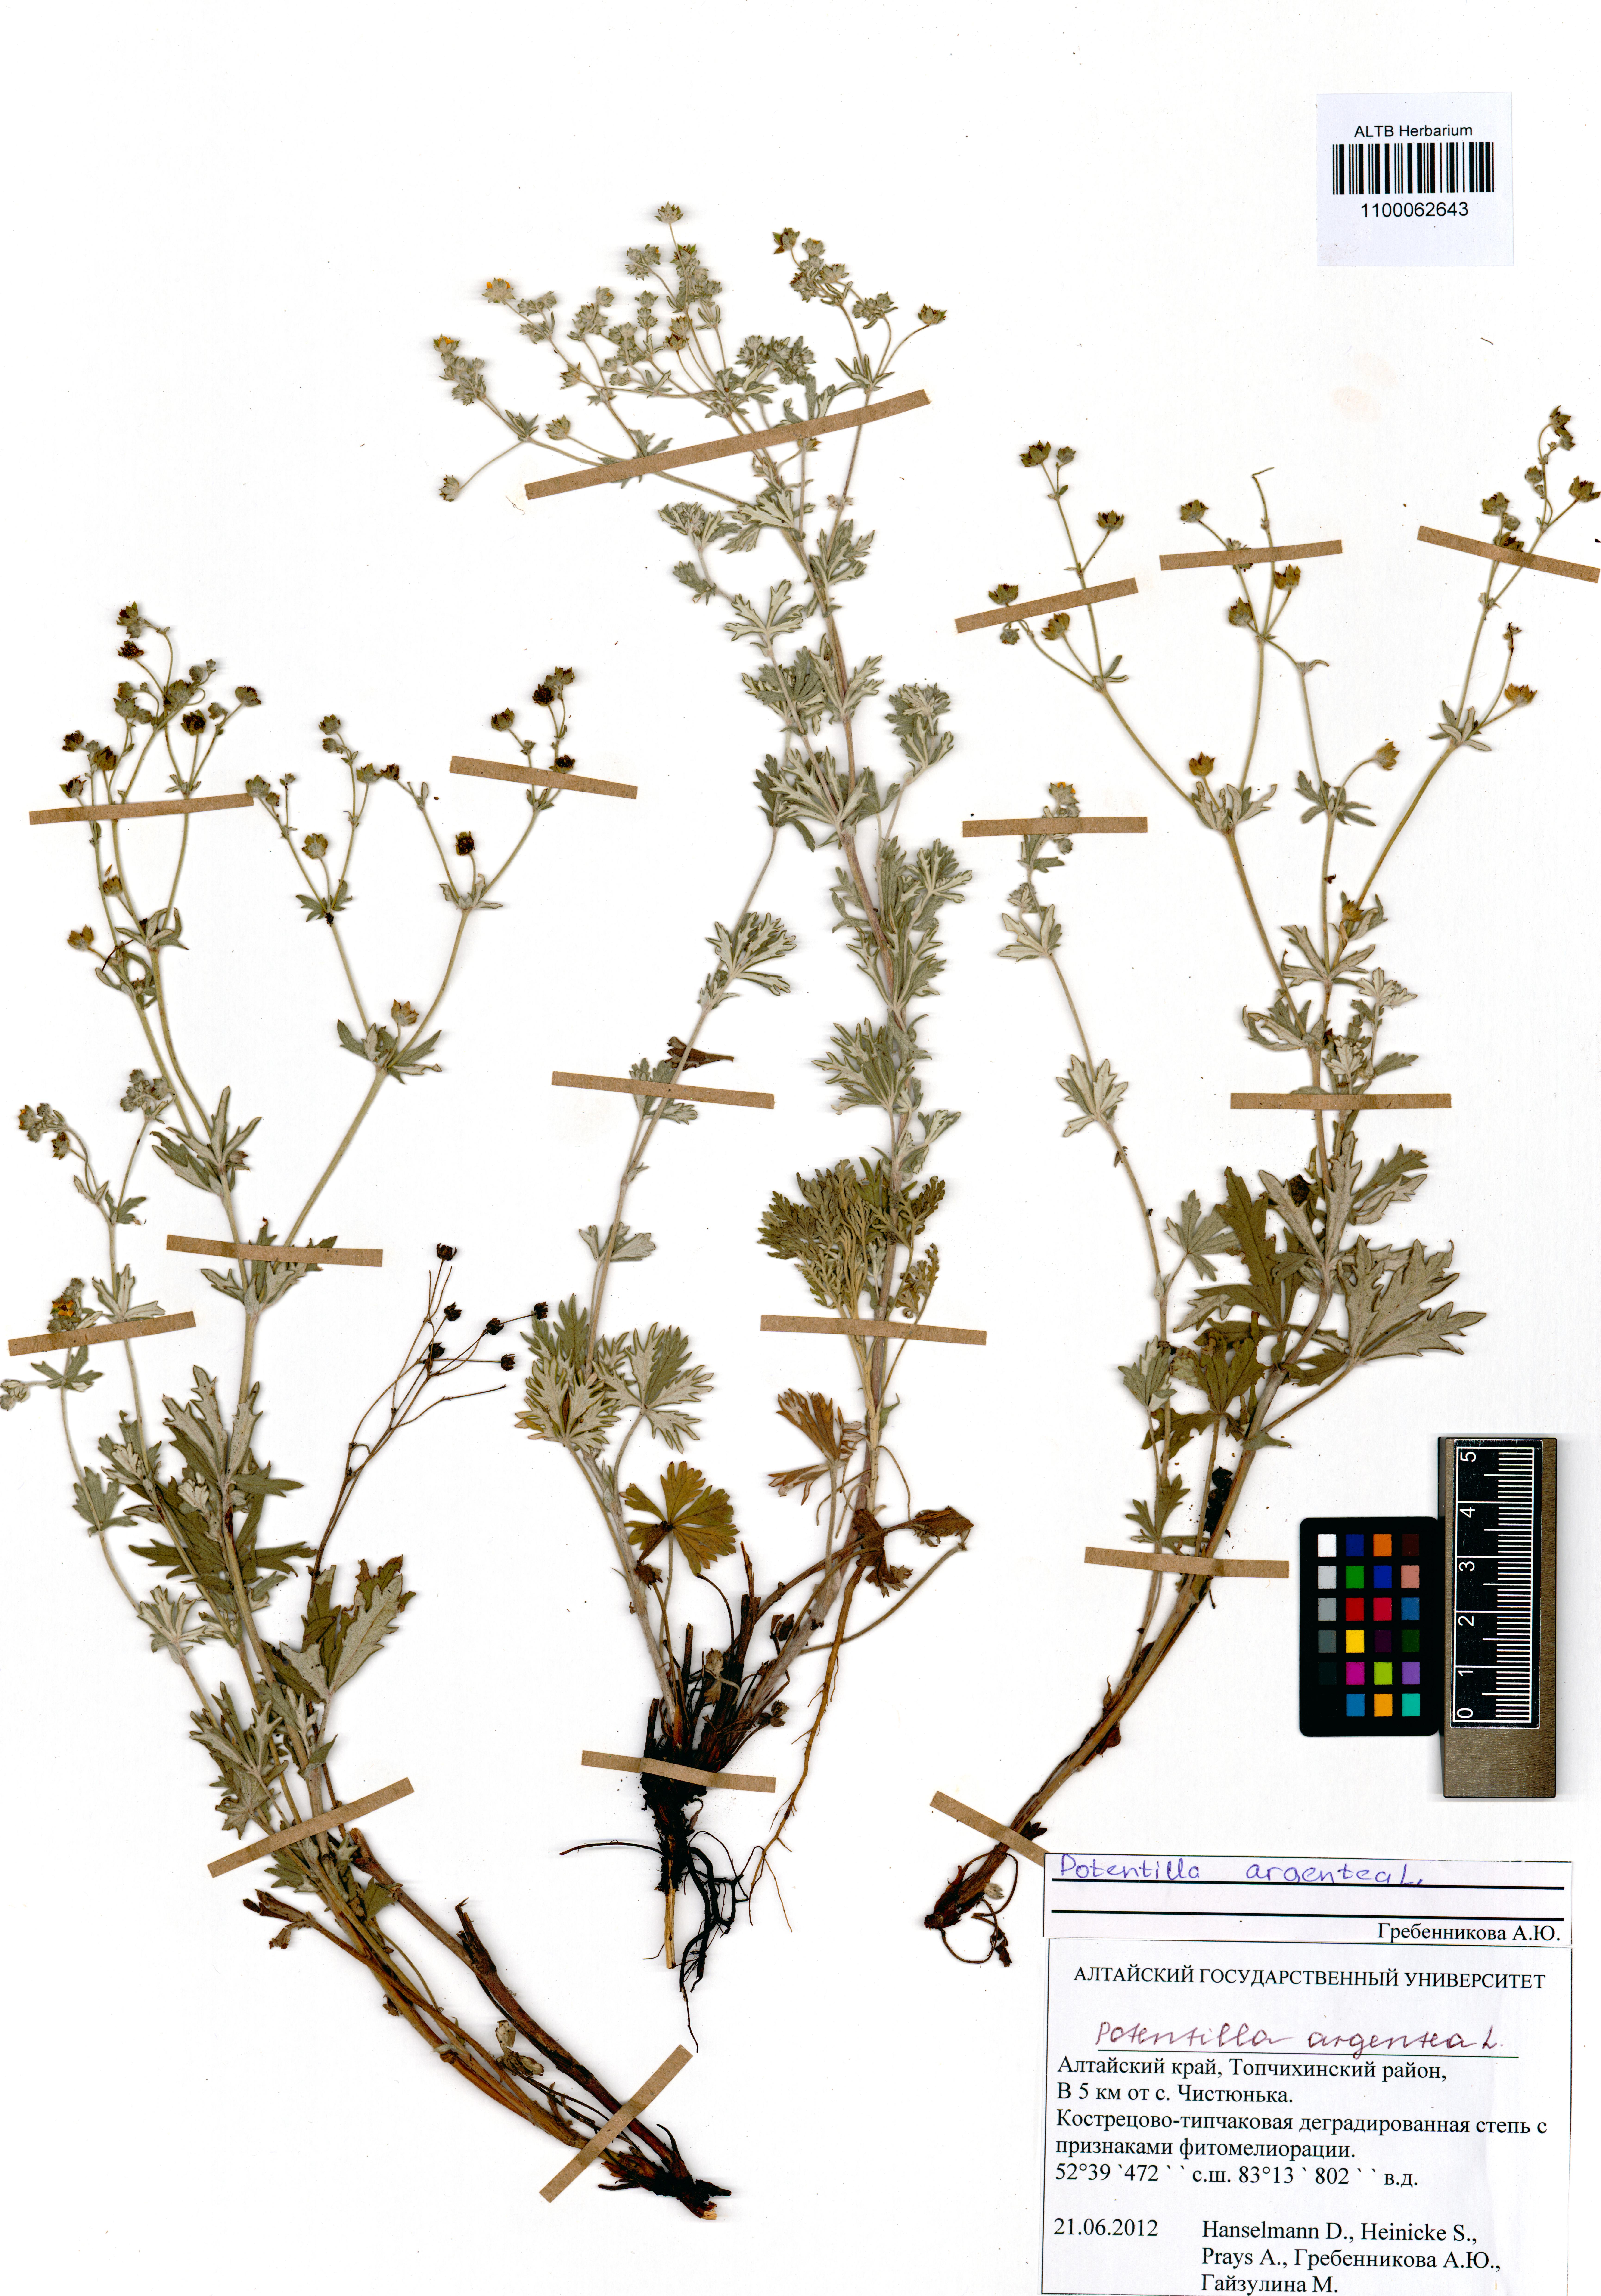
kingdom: Plantae
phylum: Tracheophyta
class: Magnoliopsida
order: Rosales
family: Rosaceae
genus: Potentilla
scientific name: Potentilla argentea
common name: Hoary cinquefoil
